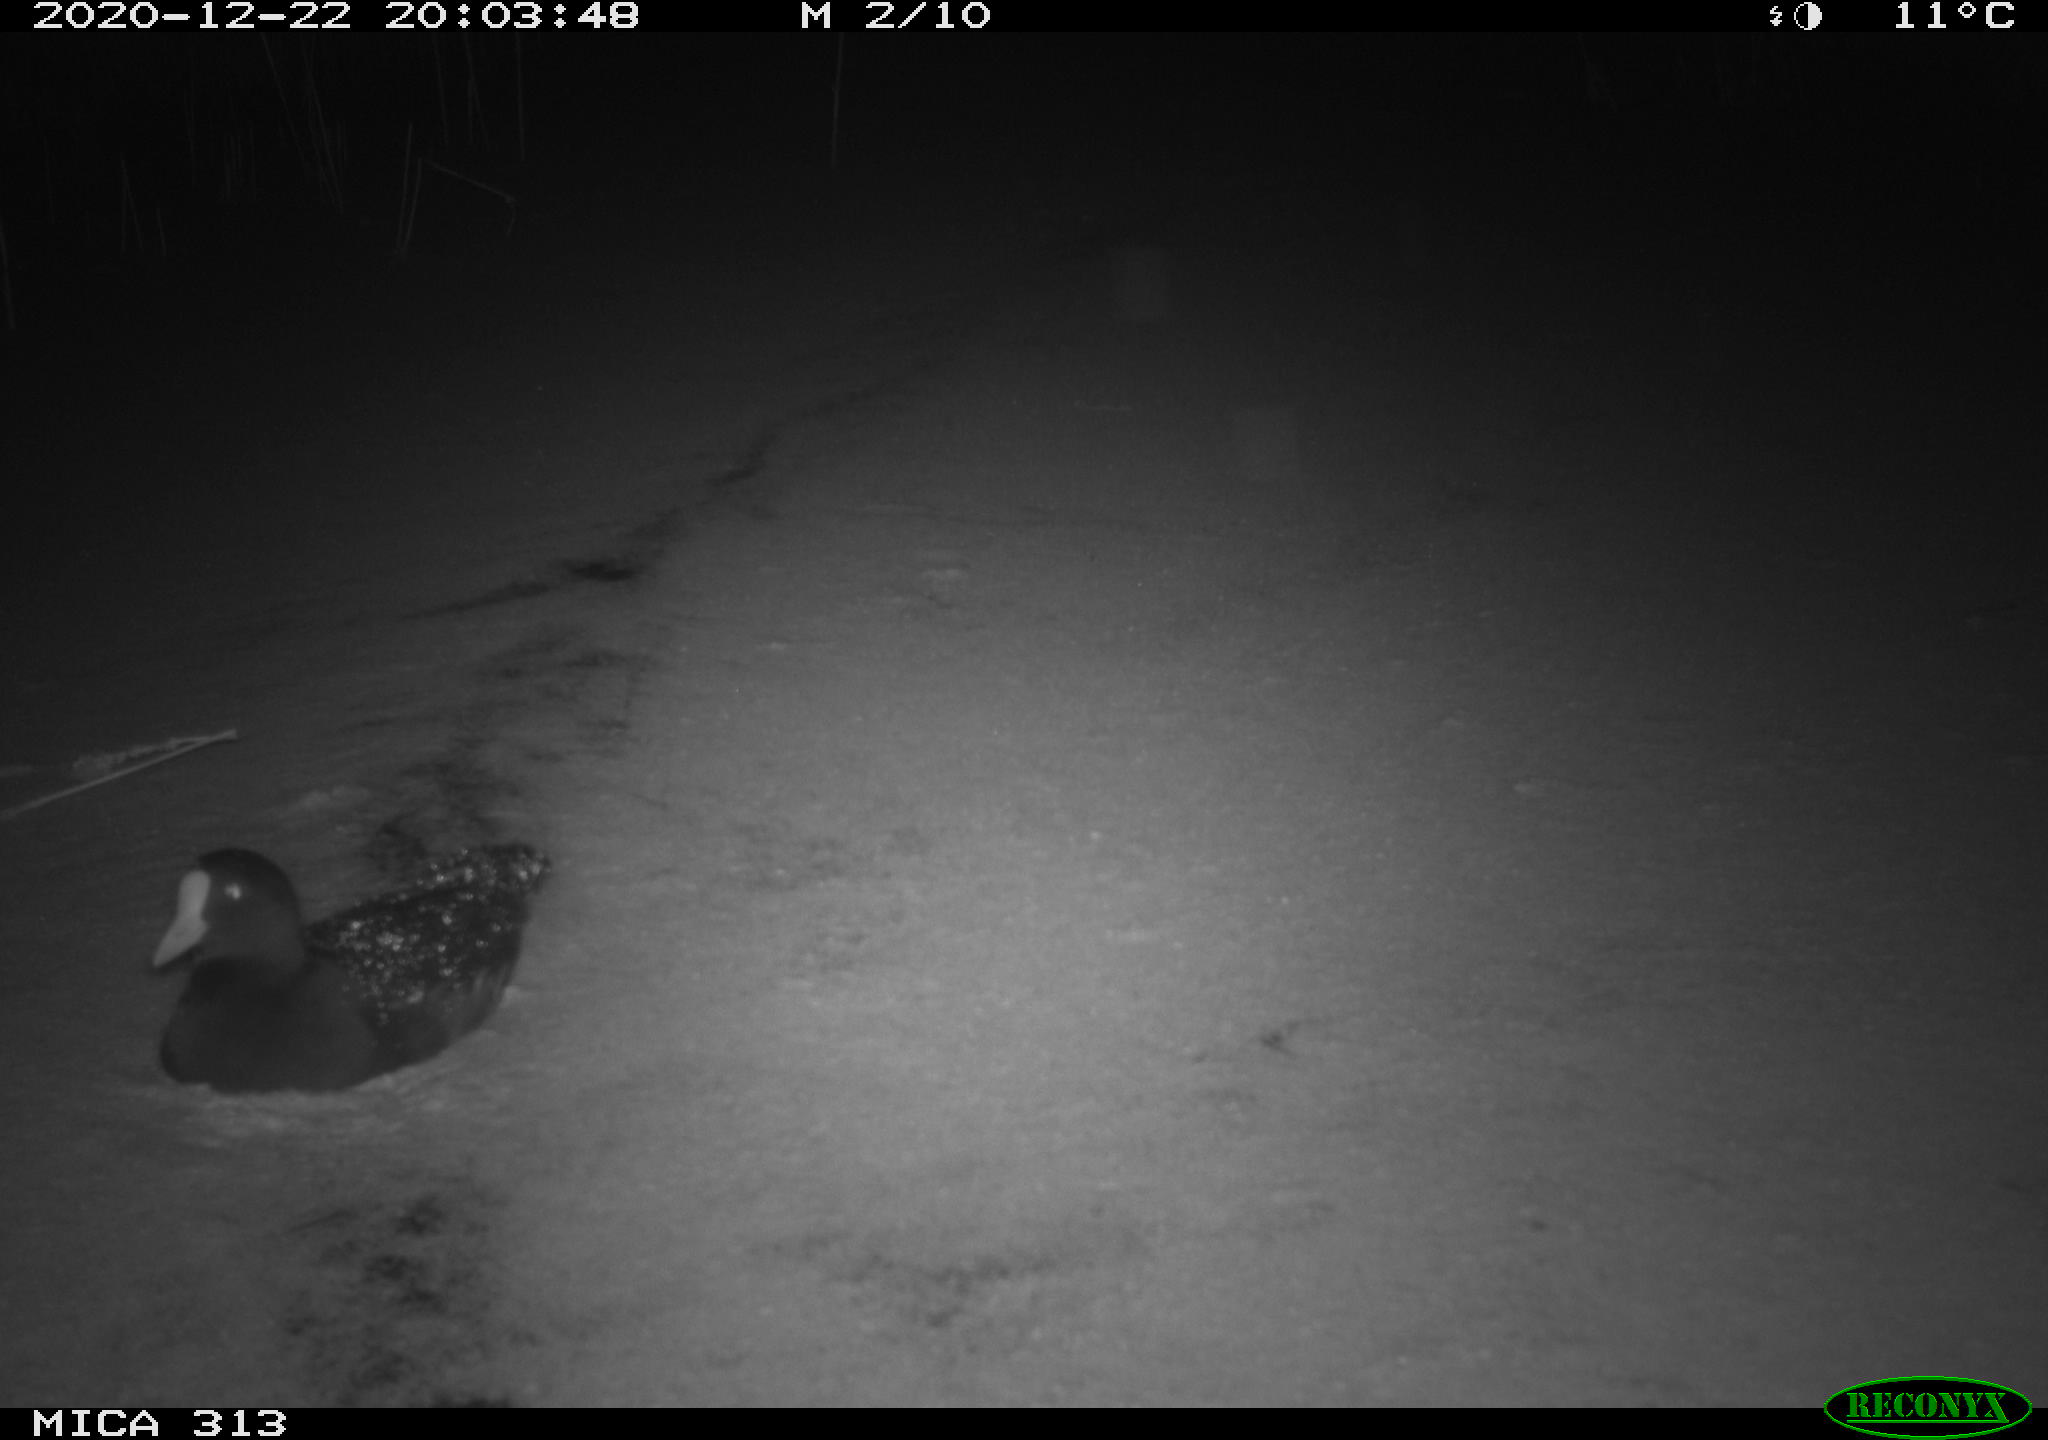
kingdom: Animalia
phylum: Chordata
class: Aves
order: Gruiformes
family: Rallidae
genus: Fulica
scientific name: Fulica atra
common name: Eurasian coot
